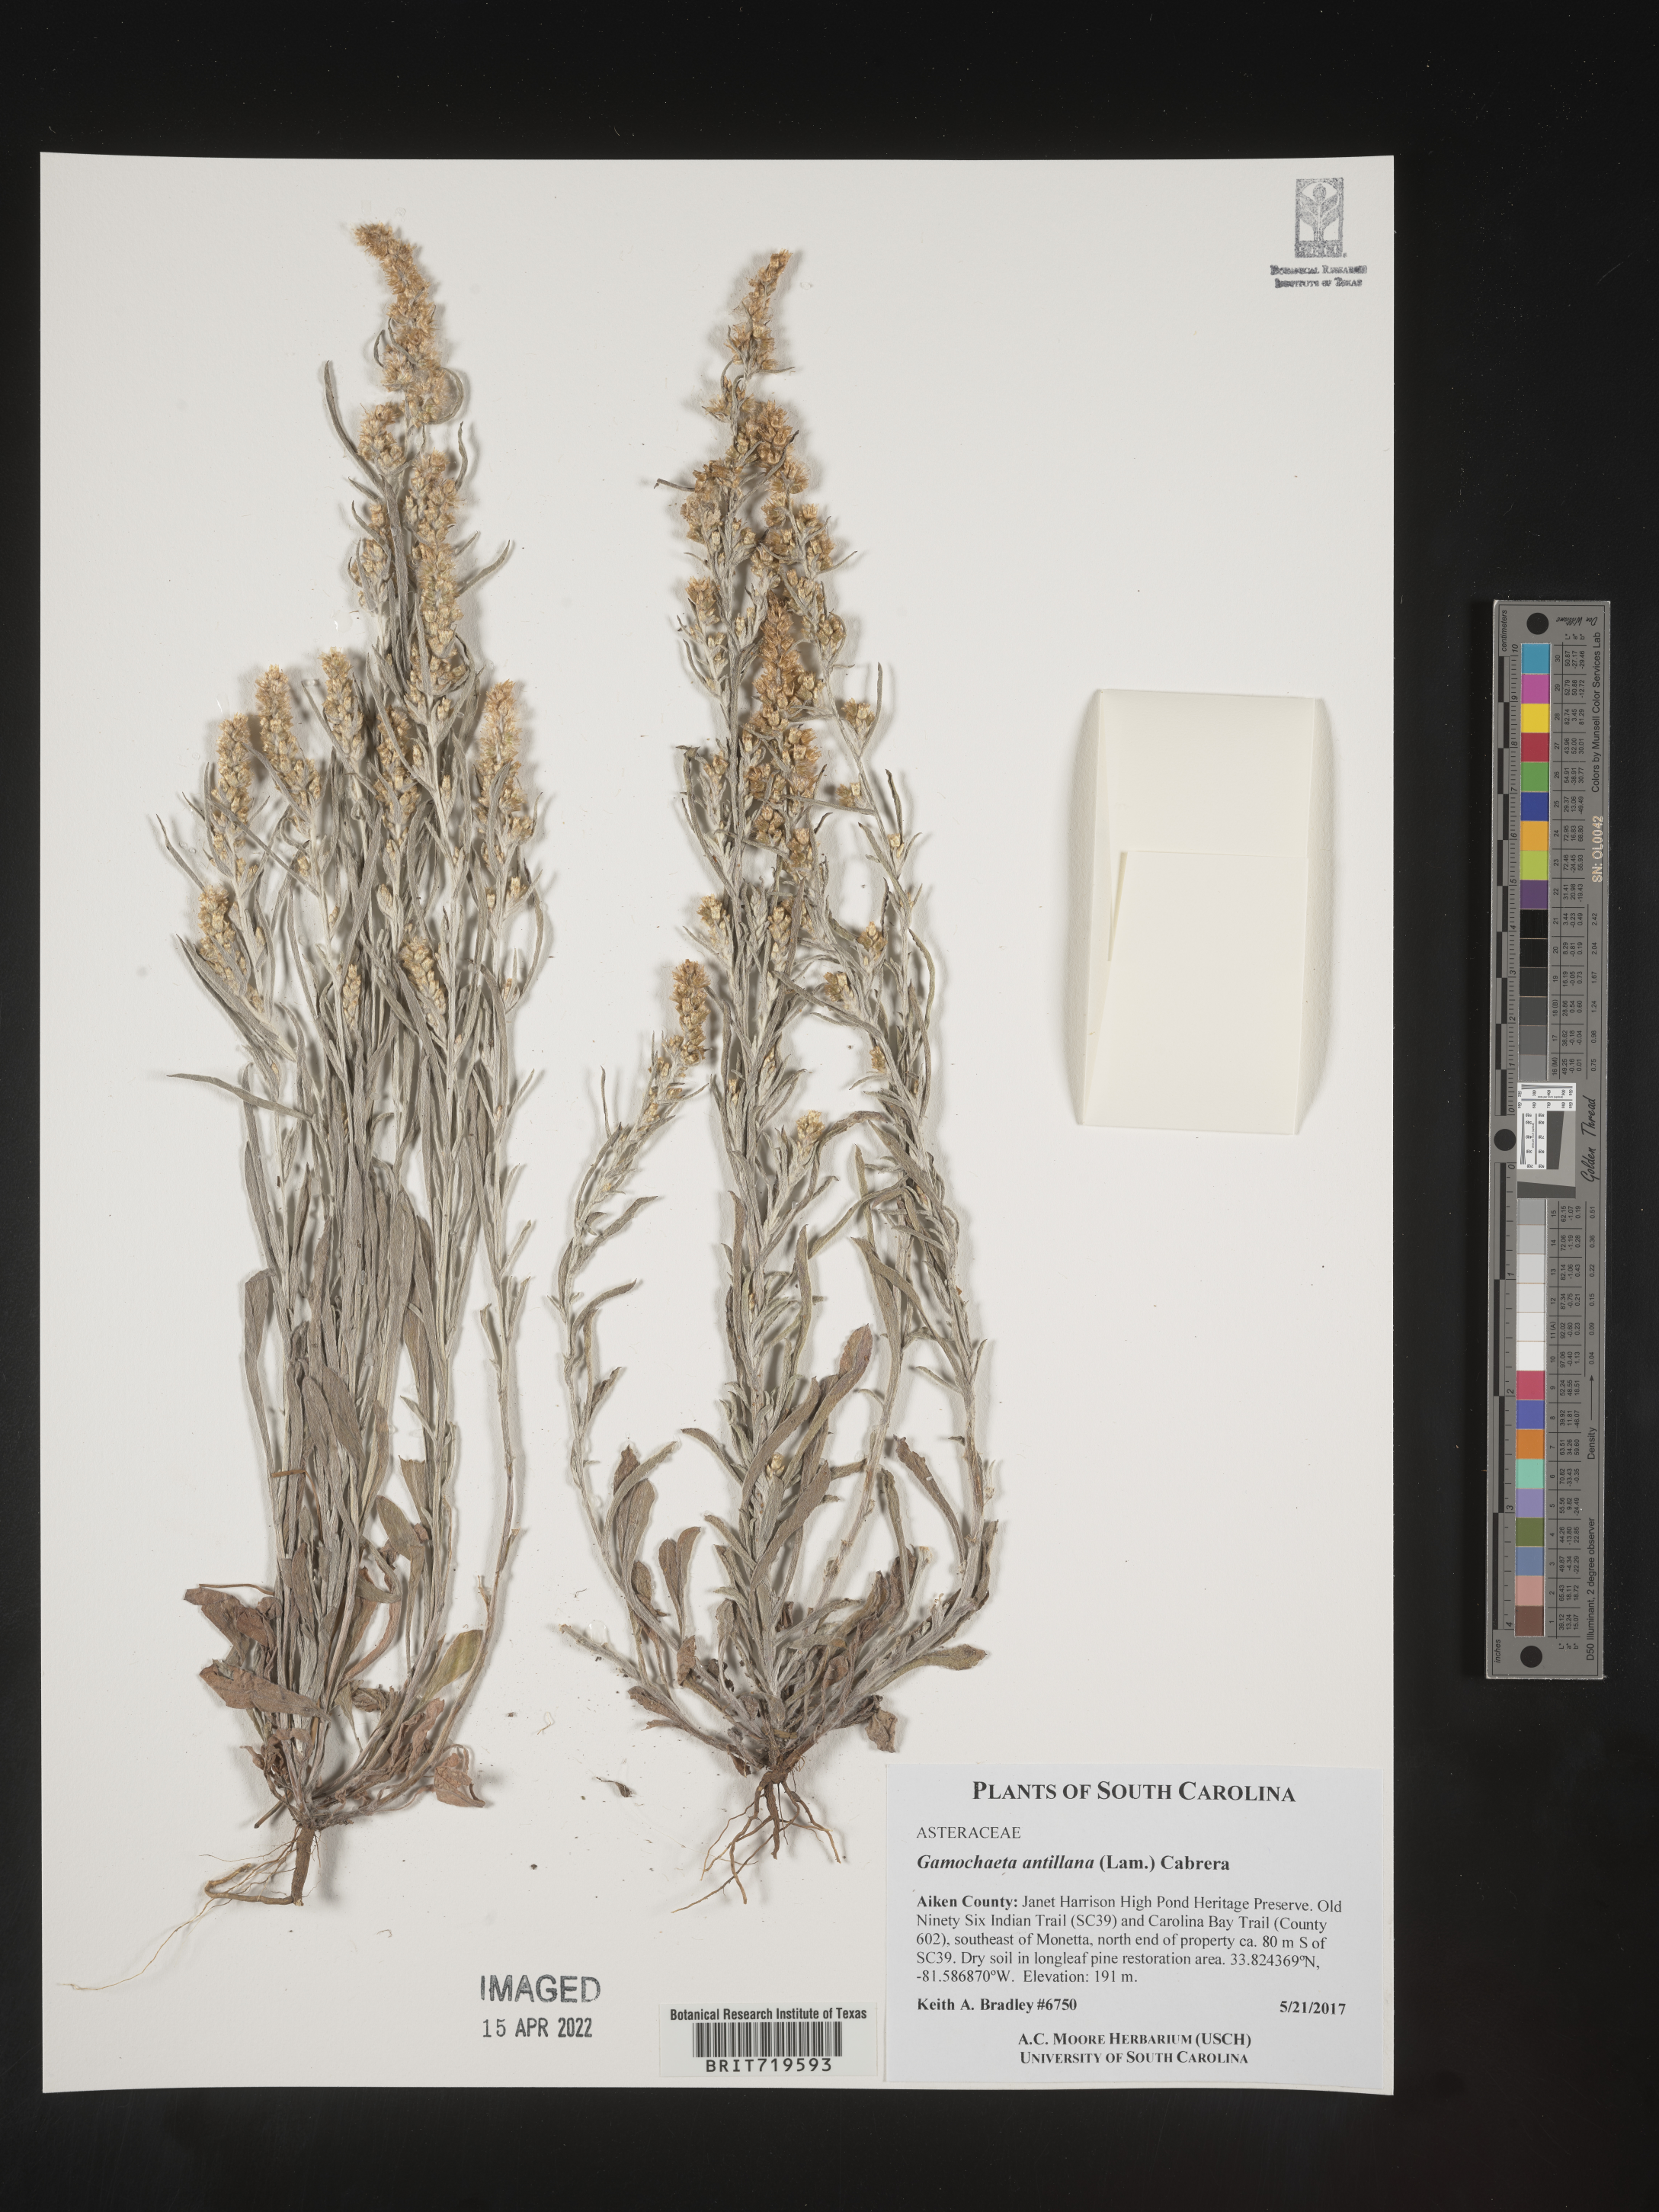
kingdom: Plantae
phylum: Tracheophyta
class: Magnoliopsida
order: Asterales
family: Asteraceae
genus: Gamochaeta
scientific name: Gamochaeta antillana
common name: Delicate everlasting
